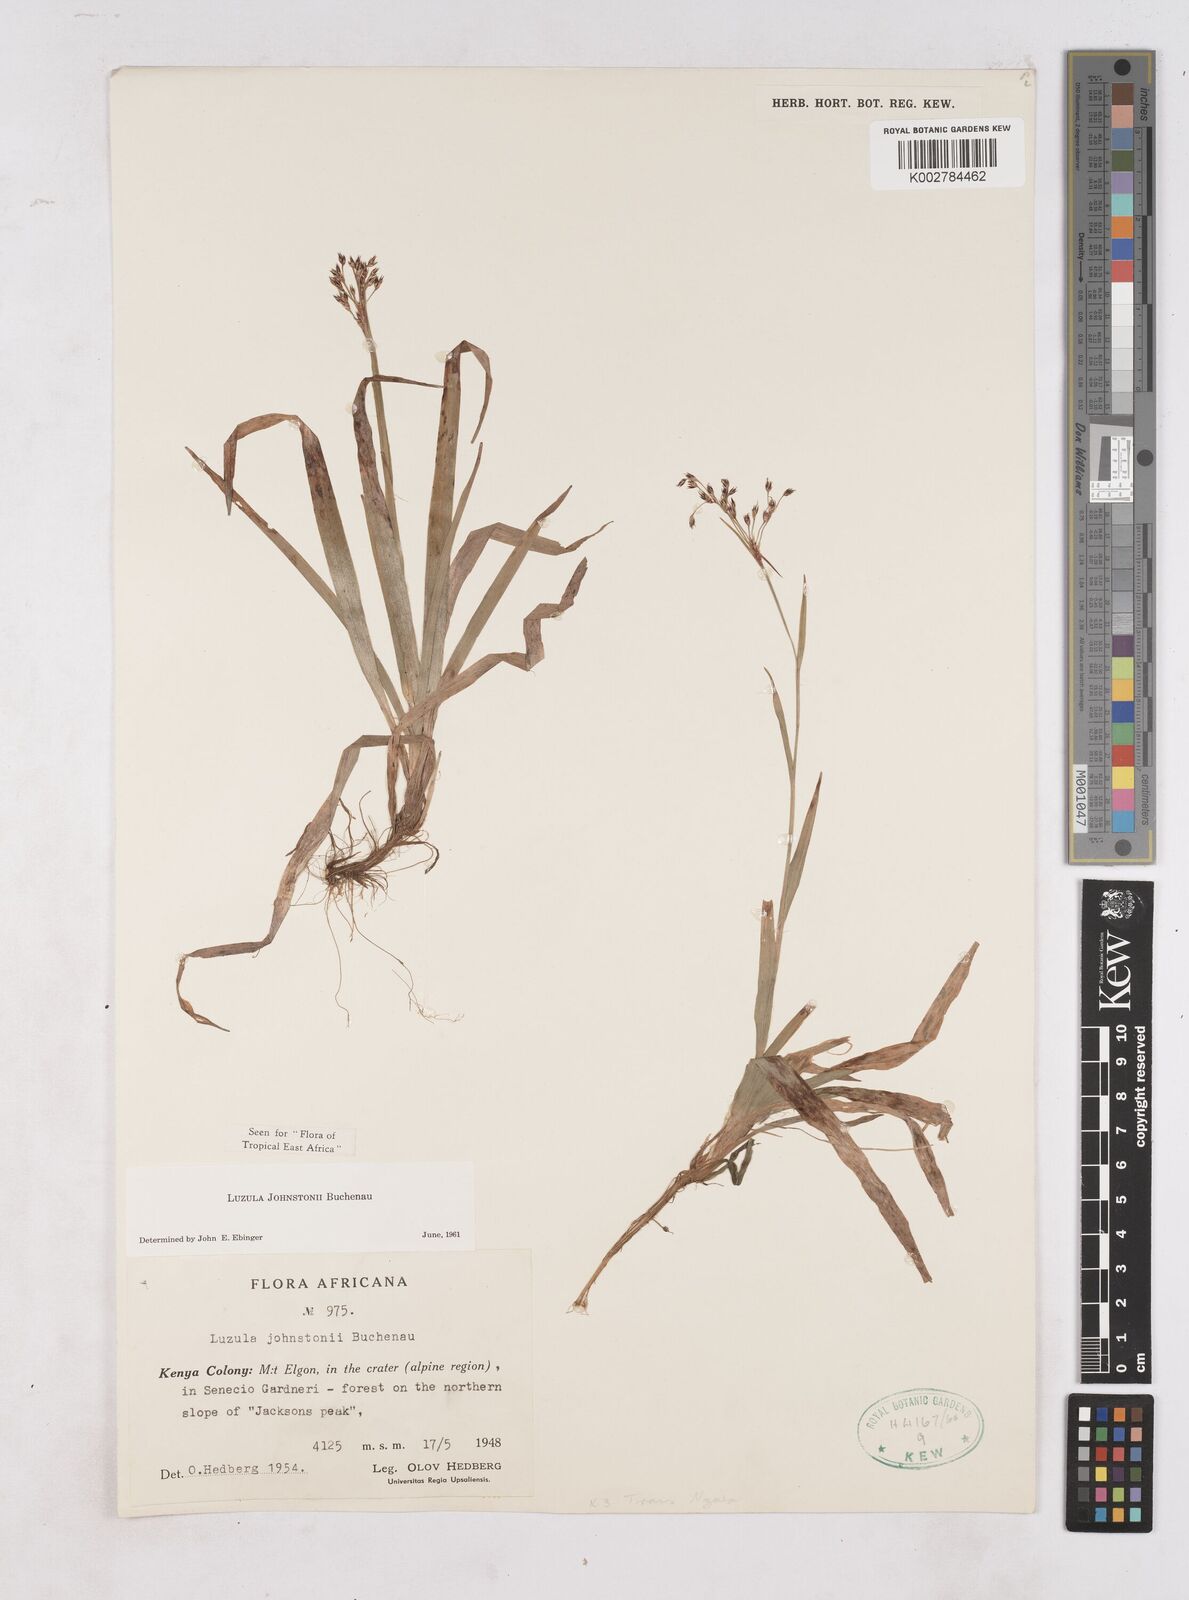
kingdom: Plantae
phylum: Tracheophyta
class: Liliopsida
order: Poales
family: Juncaceae
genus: Luzula
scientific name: Luzula johnstonii
